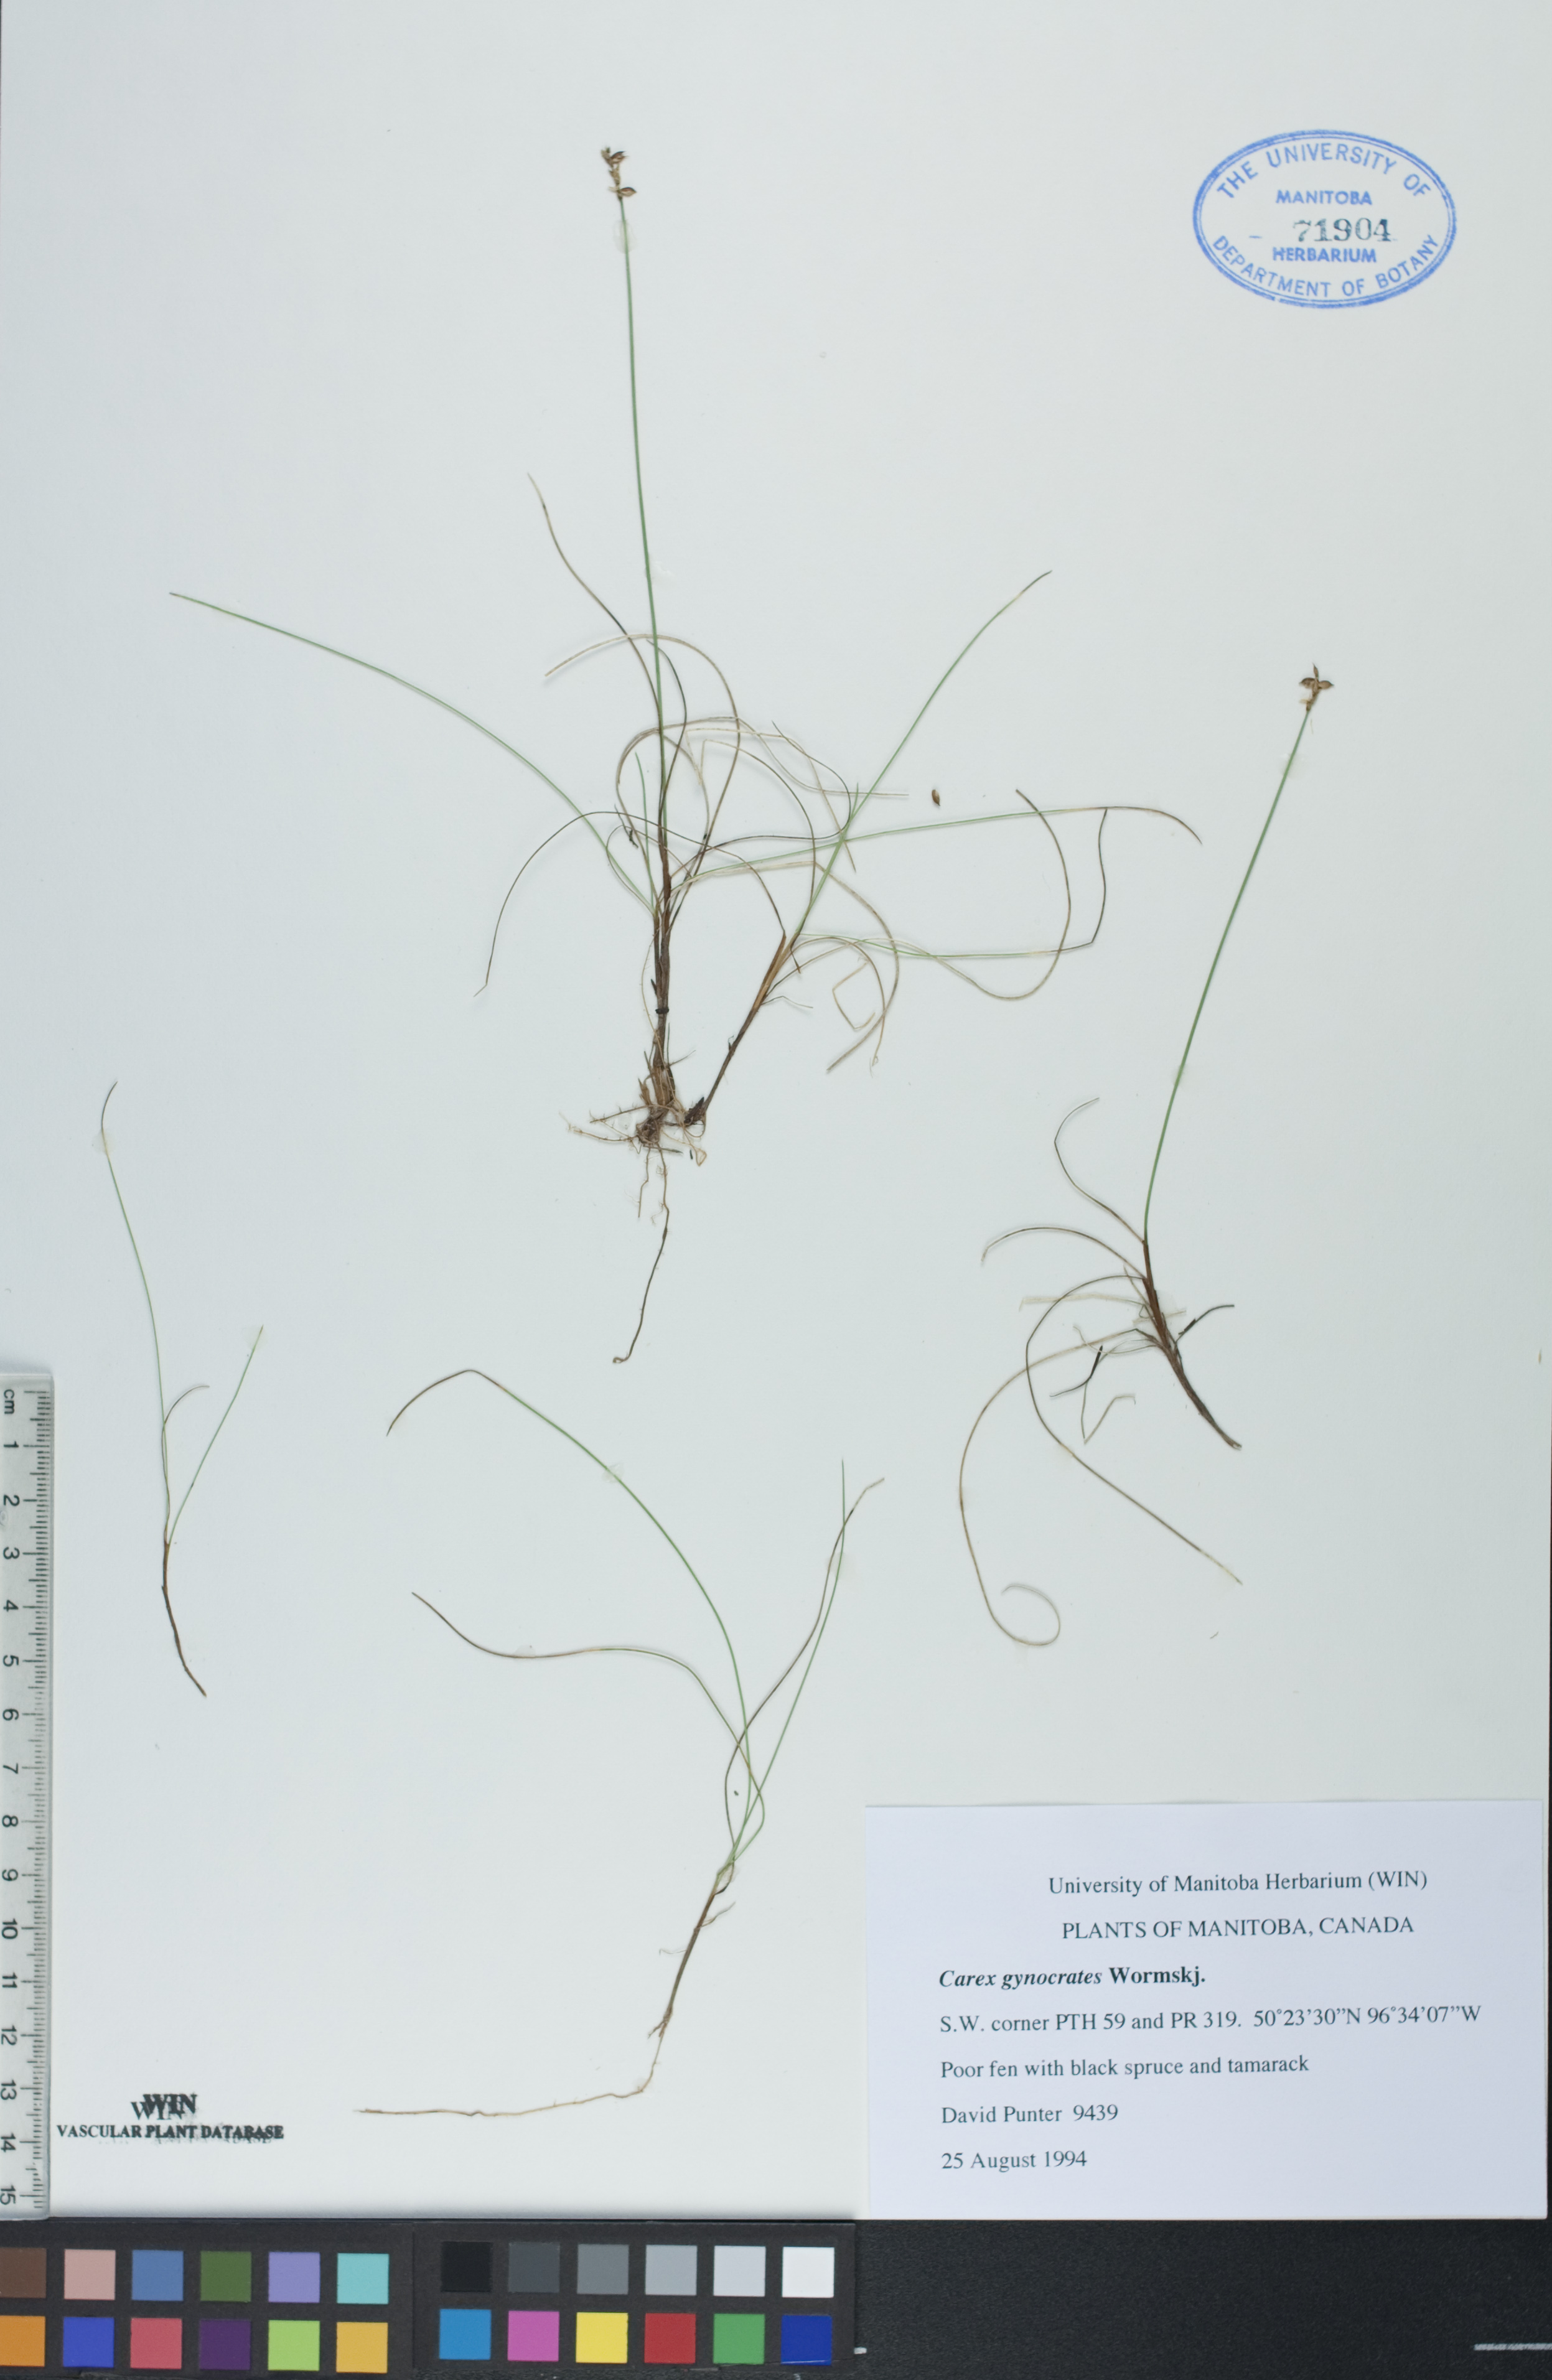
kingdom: Plantae
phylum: Tracheophyta
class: Liliopsida
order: Poales
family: Cyperaceae
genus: Carex
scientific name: Carex nardina
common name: Nard sedge
